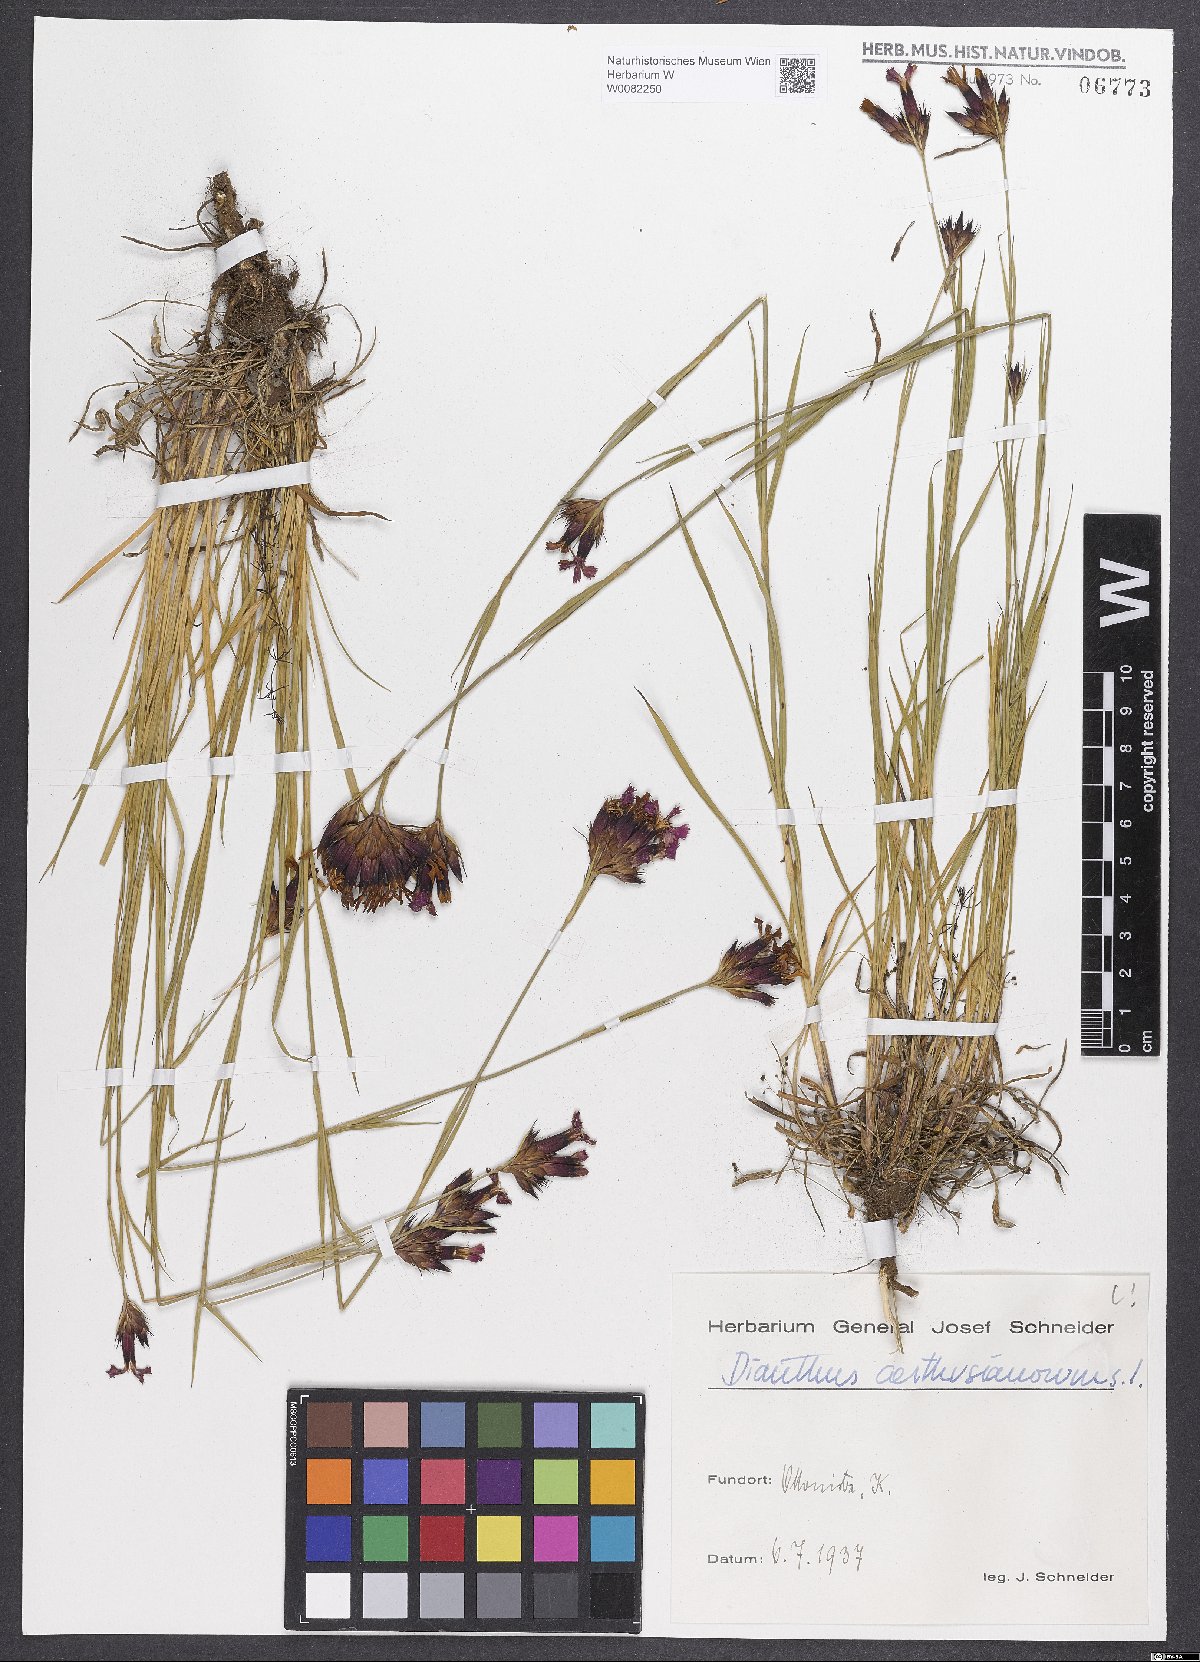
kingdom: Plantae
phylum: Tracheophyta
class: Magnoliopsida
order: Caryophyllales
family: Caryophyllaceae
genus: Dianthus
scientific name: Dianthus carthusianorum
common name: Carthusian pink
